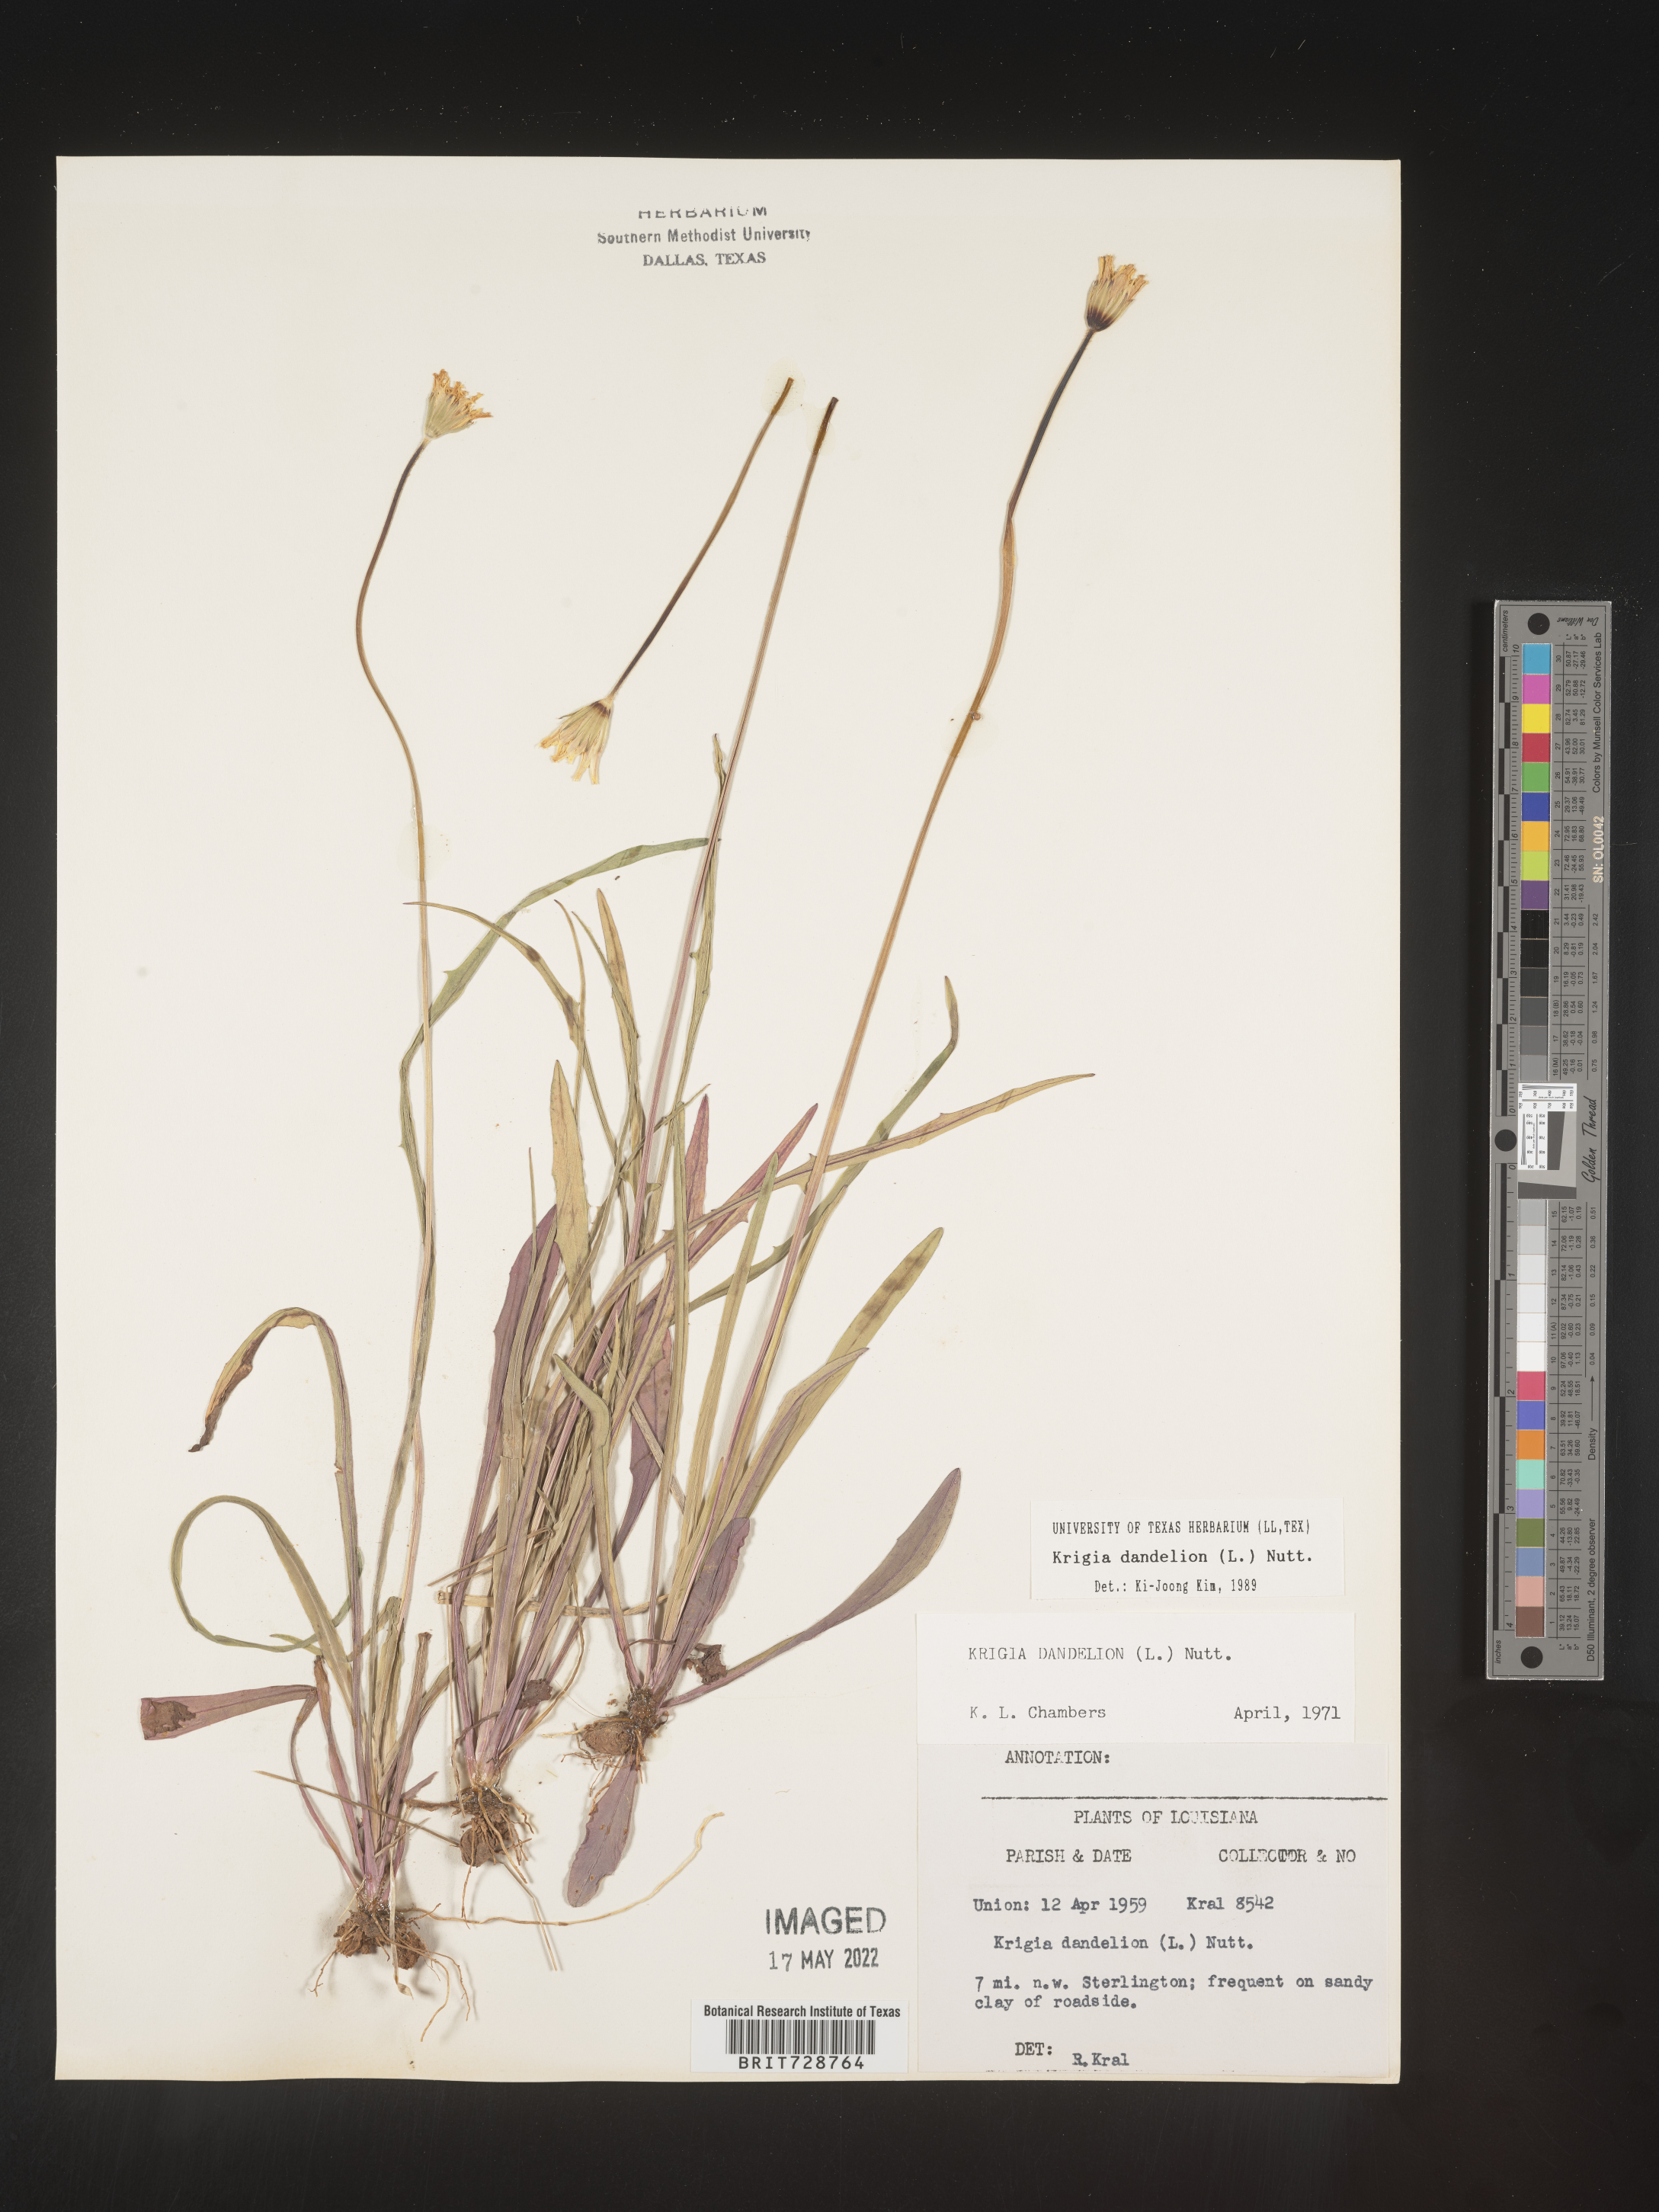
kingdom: Plantae
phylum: Tracheophyta
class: Magnoliopsida
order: Asterales
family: Asteraceae
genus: Krigia
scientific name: Krigia dandelion
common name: Colonial dwarf-dandelion
